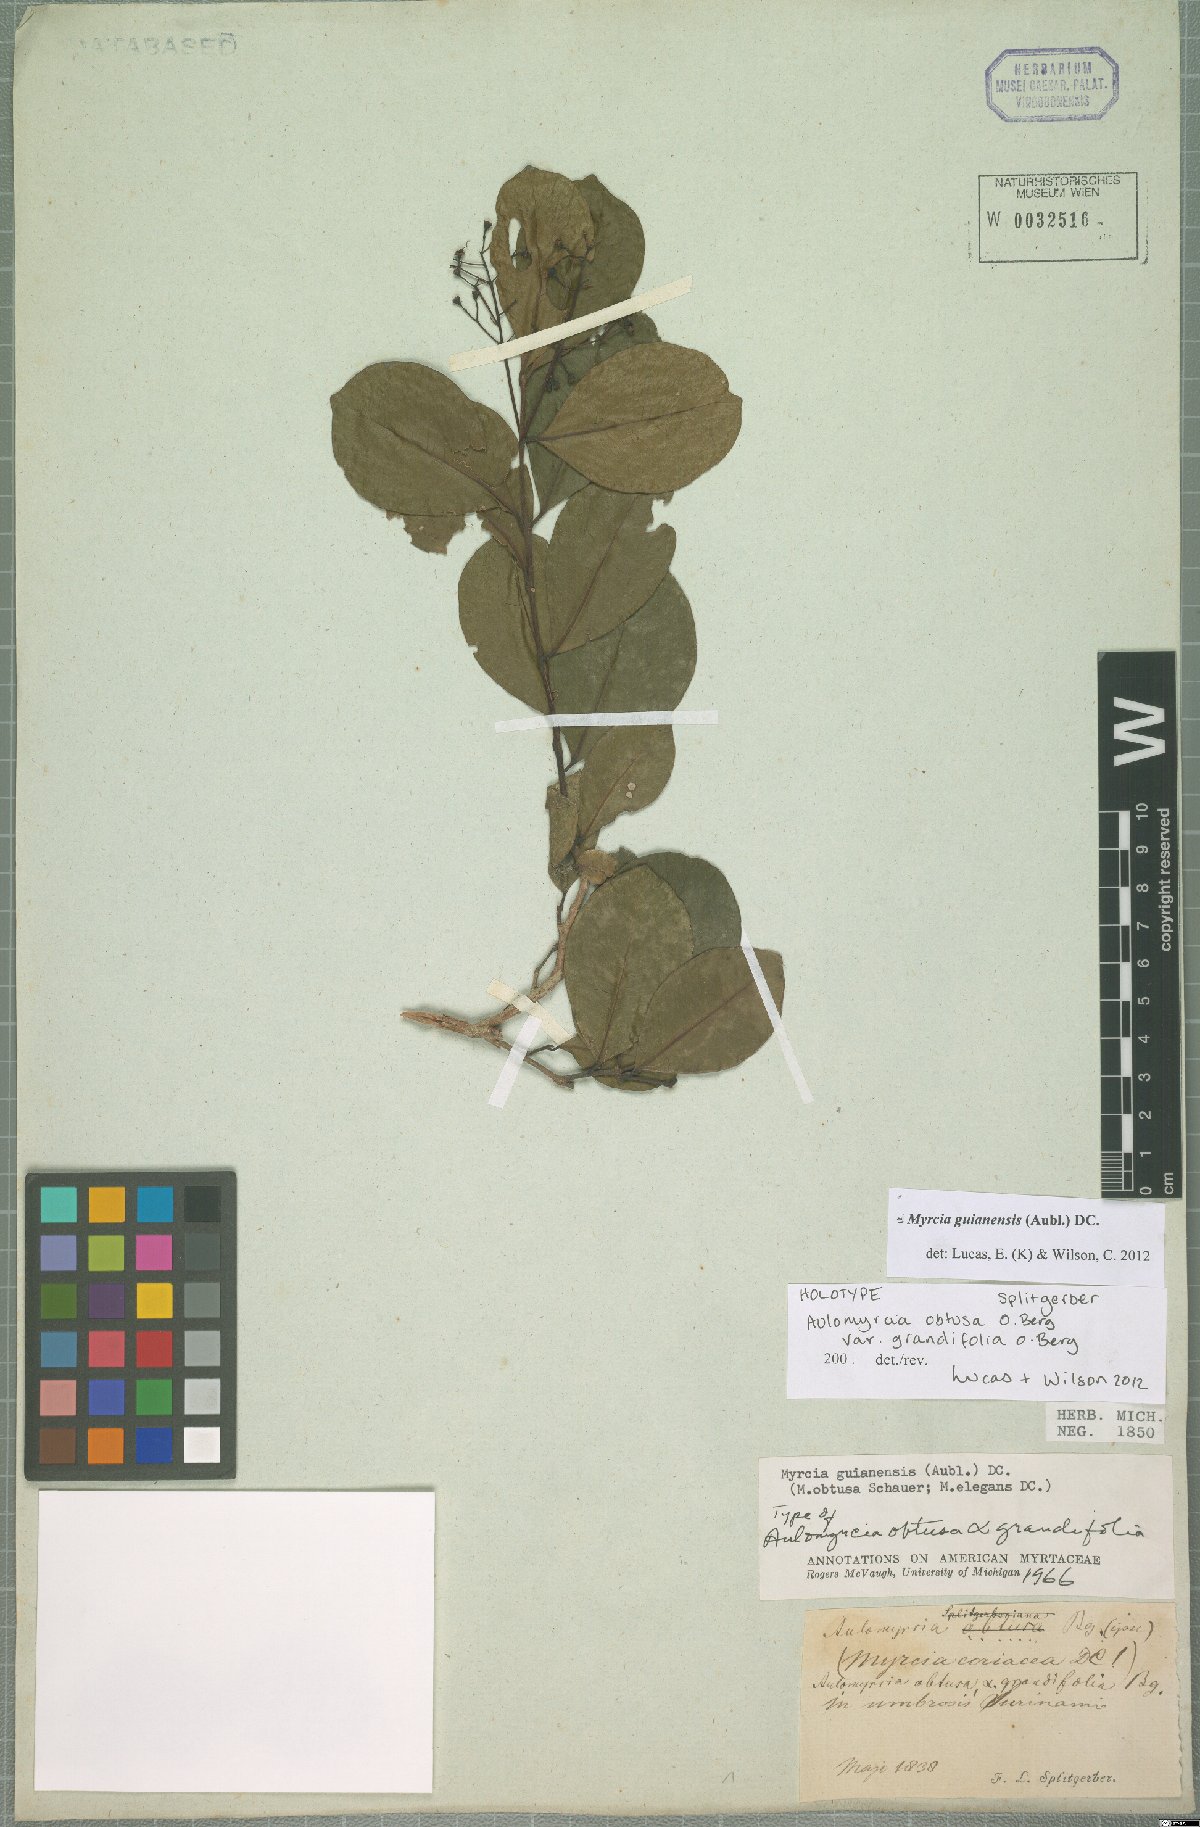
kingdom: Plantae
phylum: Tracheophyta
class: Magnoliopsida
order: Myrtales
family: Myrtaceae
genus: Myrcia
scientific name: Myrcia guianensis
